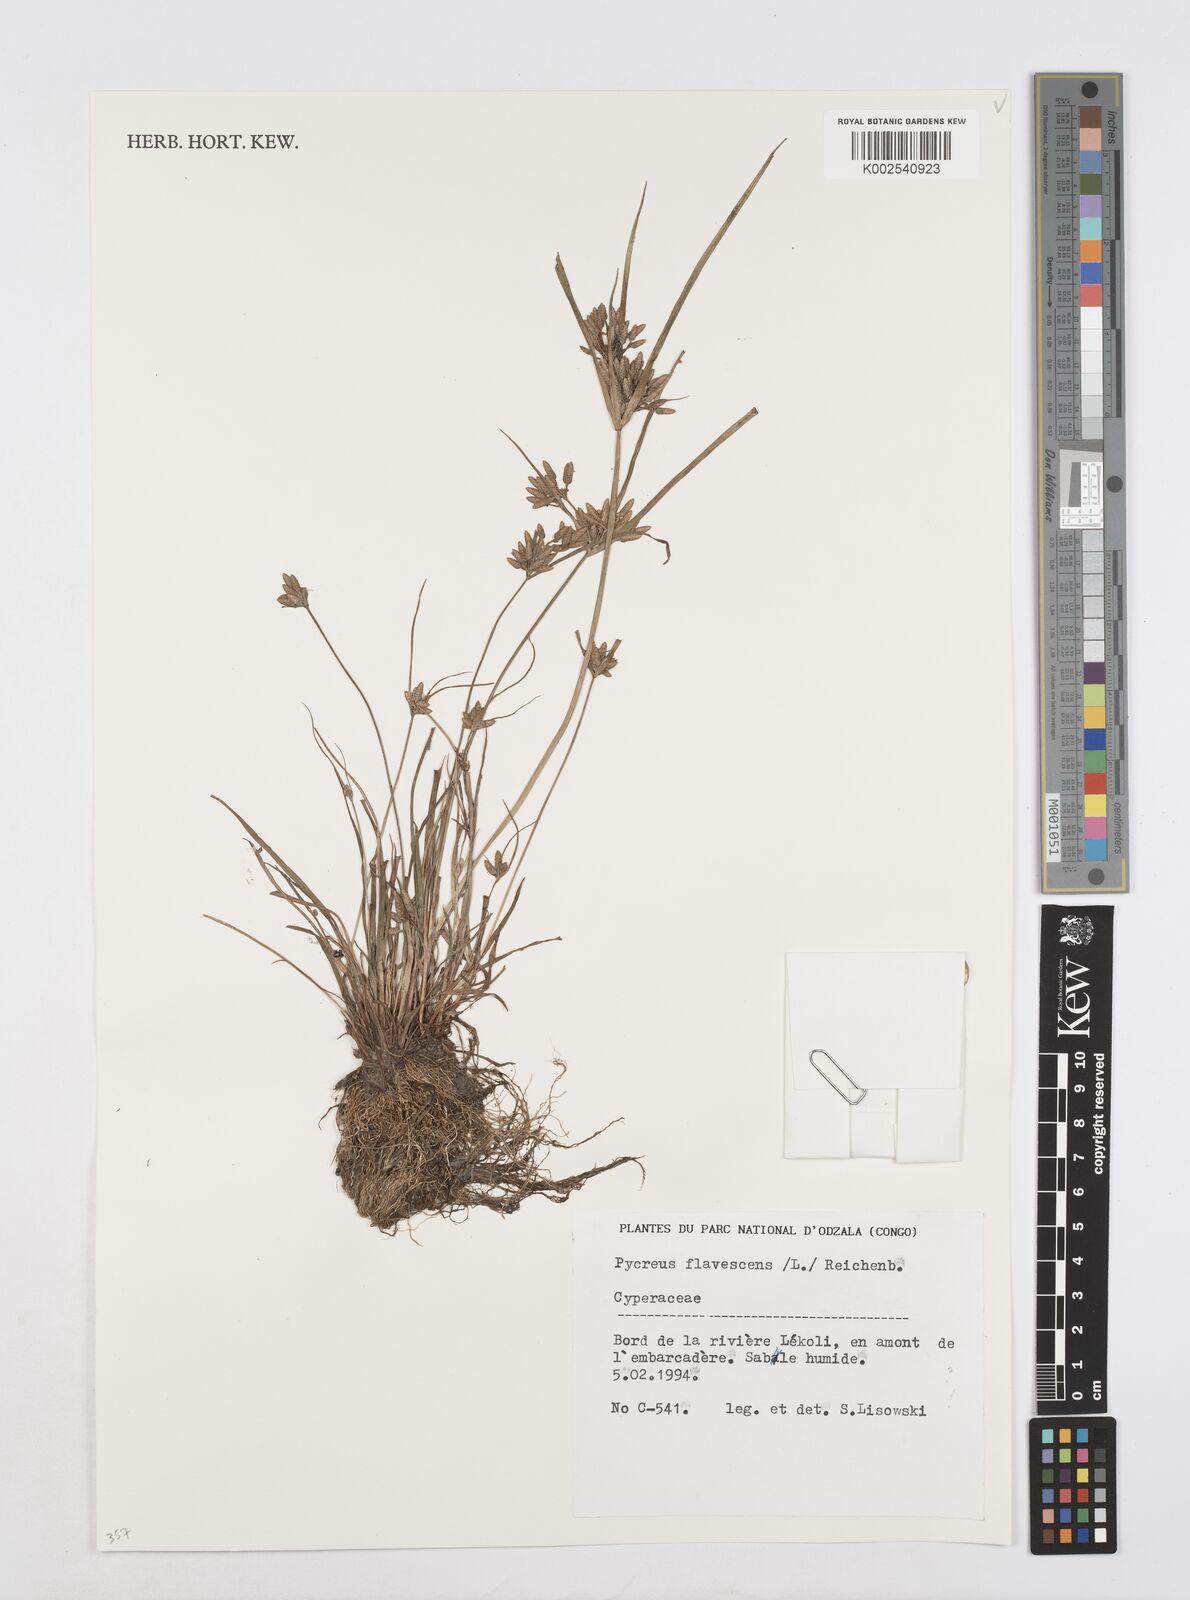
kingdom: Plantae
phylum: Tracheophyta
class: Liliopsida
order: Poales
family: Cyperaceae
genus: Cyperus
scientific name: Cyperus flavescens
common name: Yellow galingale
